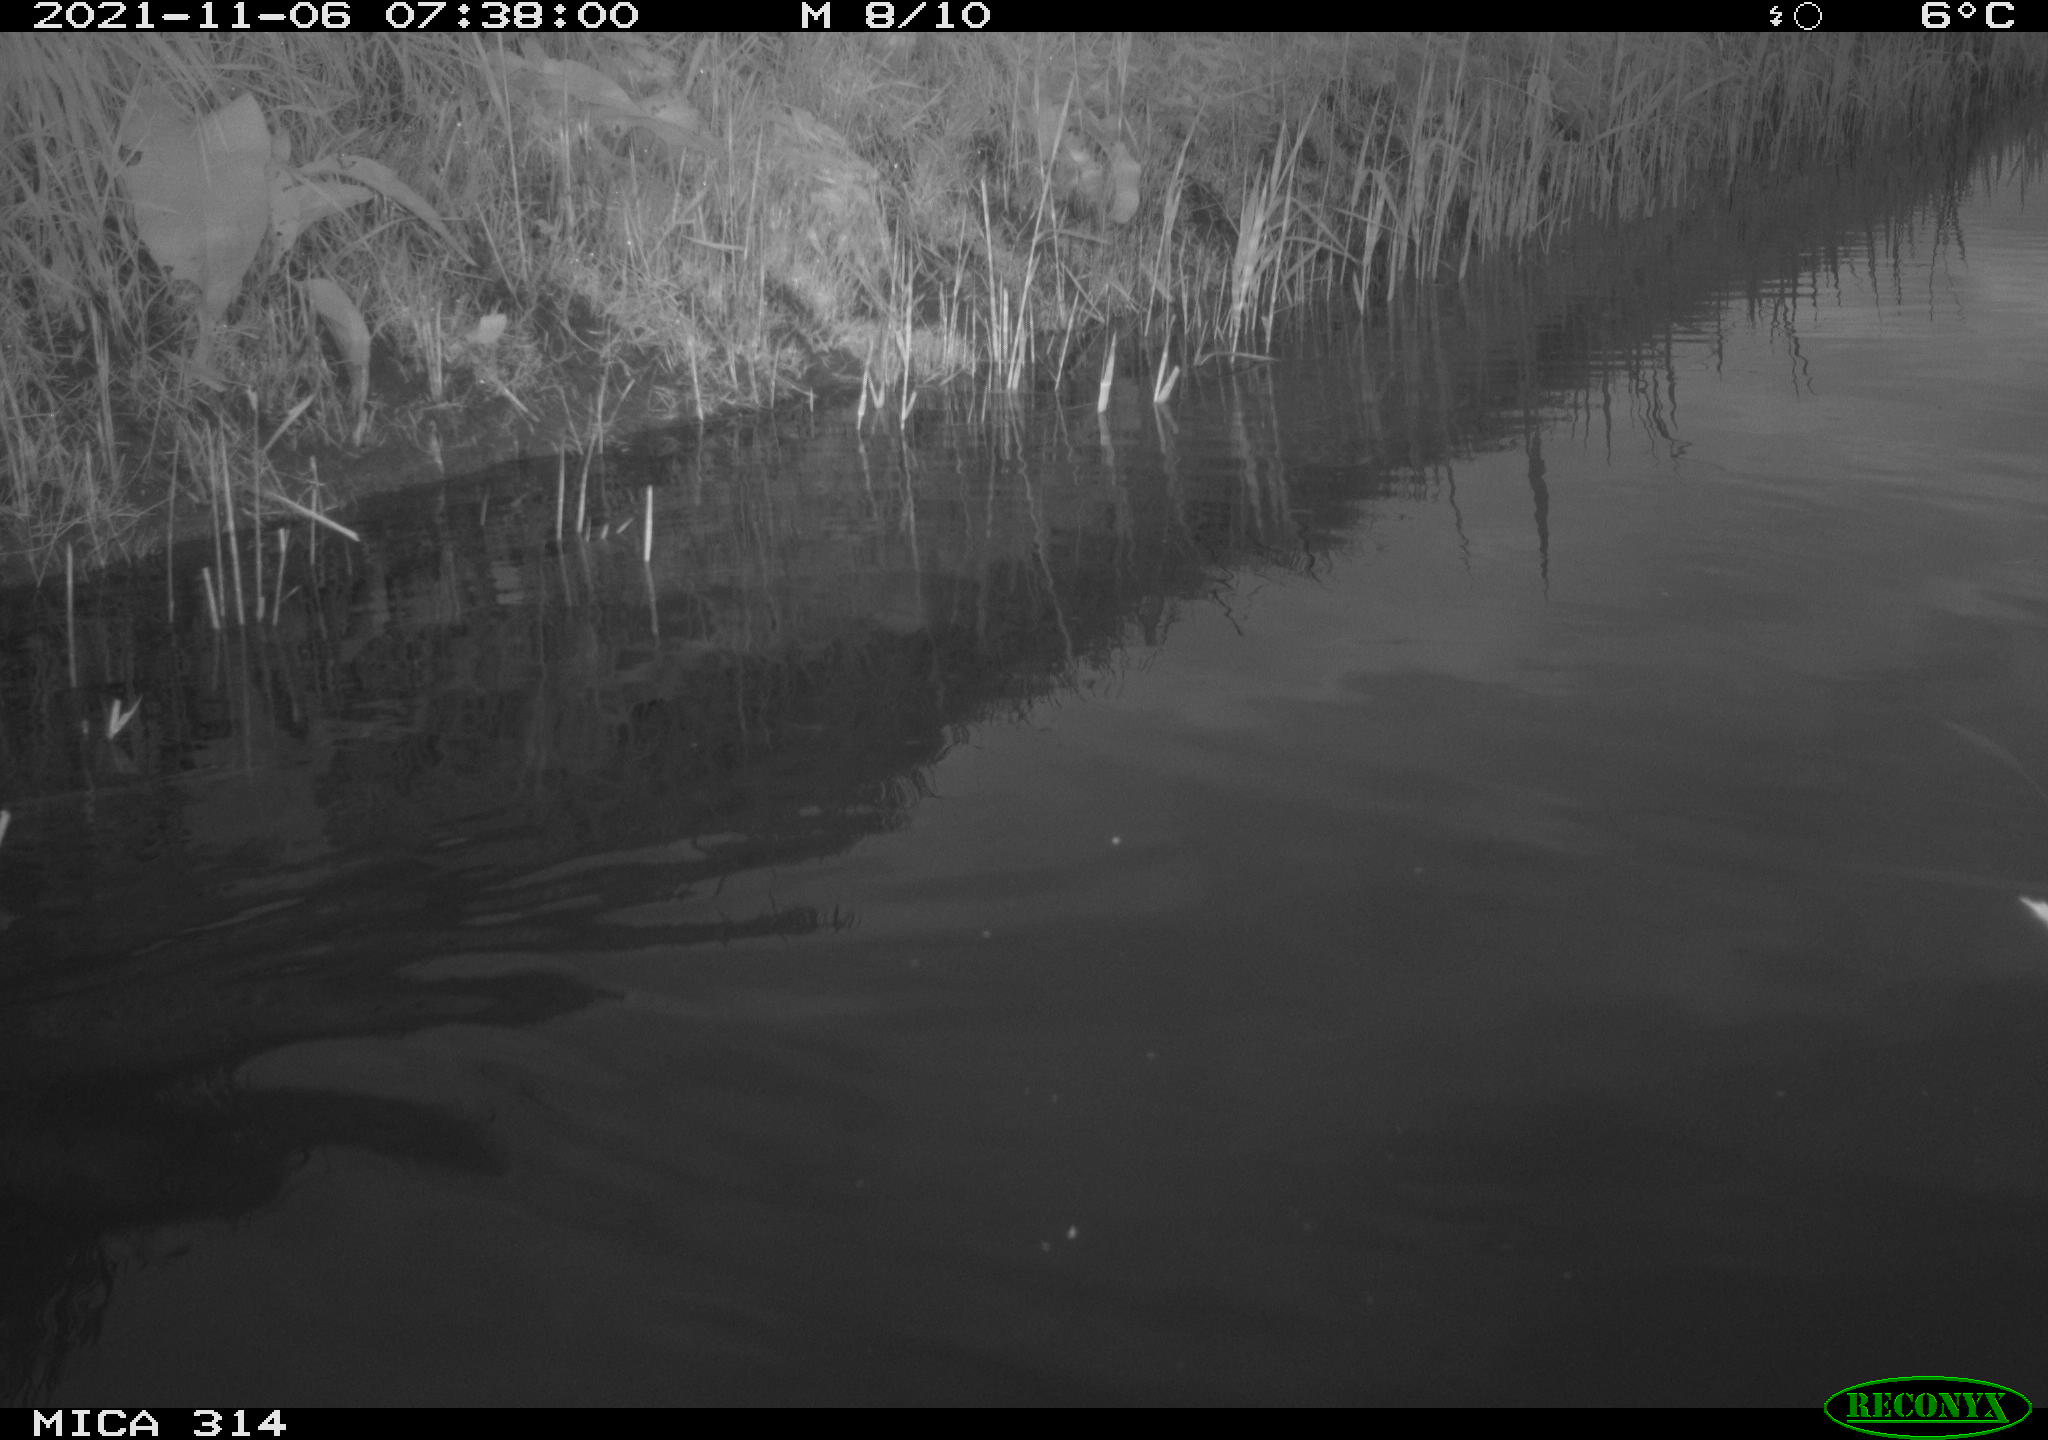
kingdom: Animalia
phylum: Chordata
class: Aves
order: Gruiformes
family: Rallidae
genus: Gallinula
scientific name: Gallinula chloropus
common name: Common moorhen
